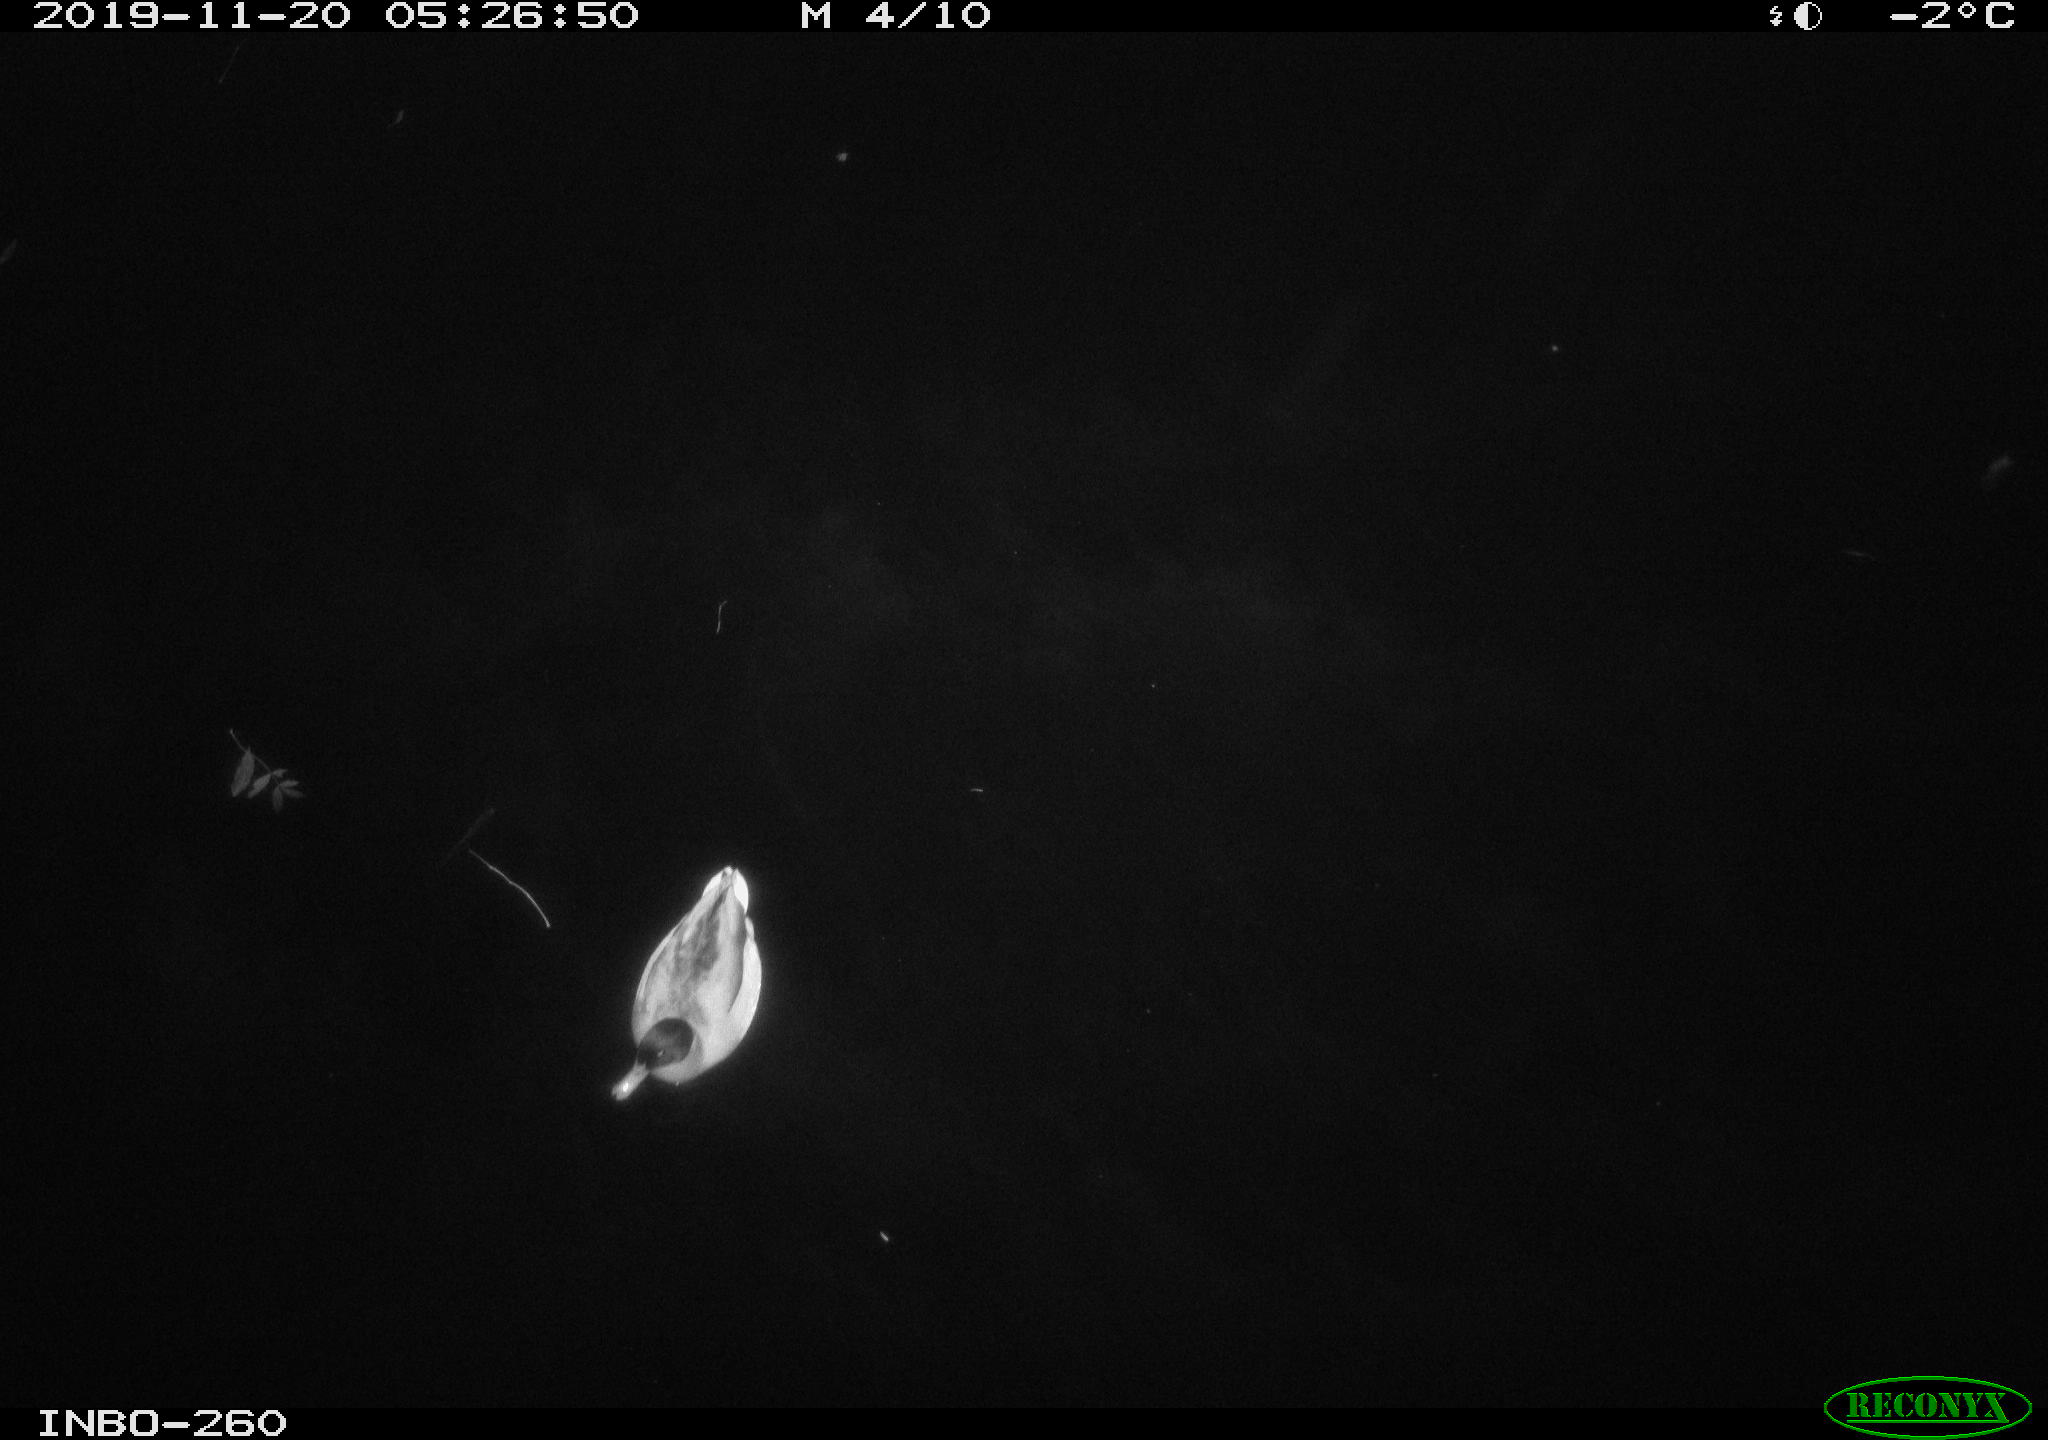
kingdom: Animalia
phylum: Chordata
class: Aves
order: Anseriformes
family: Anatidae
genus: Anas
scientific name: Anas platyrhynchos
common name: Mallard
